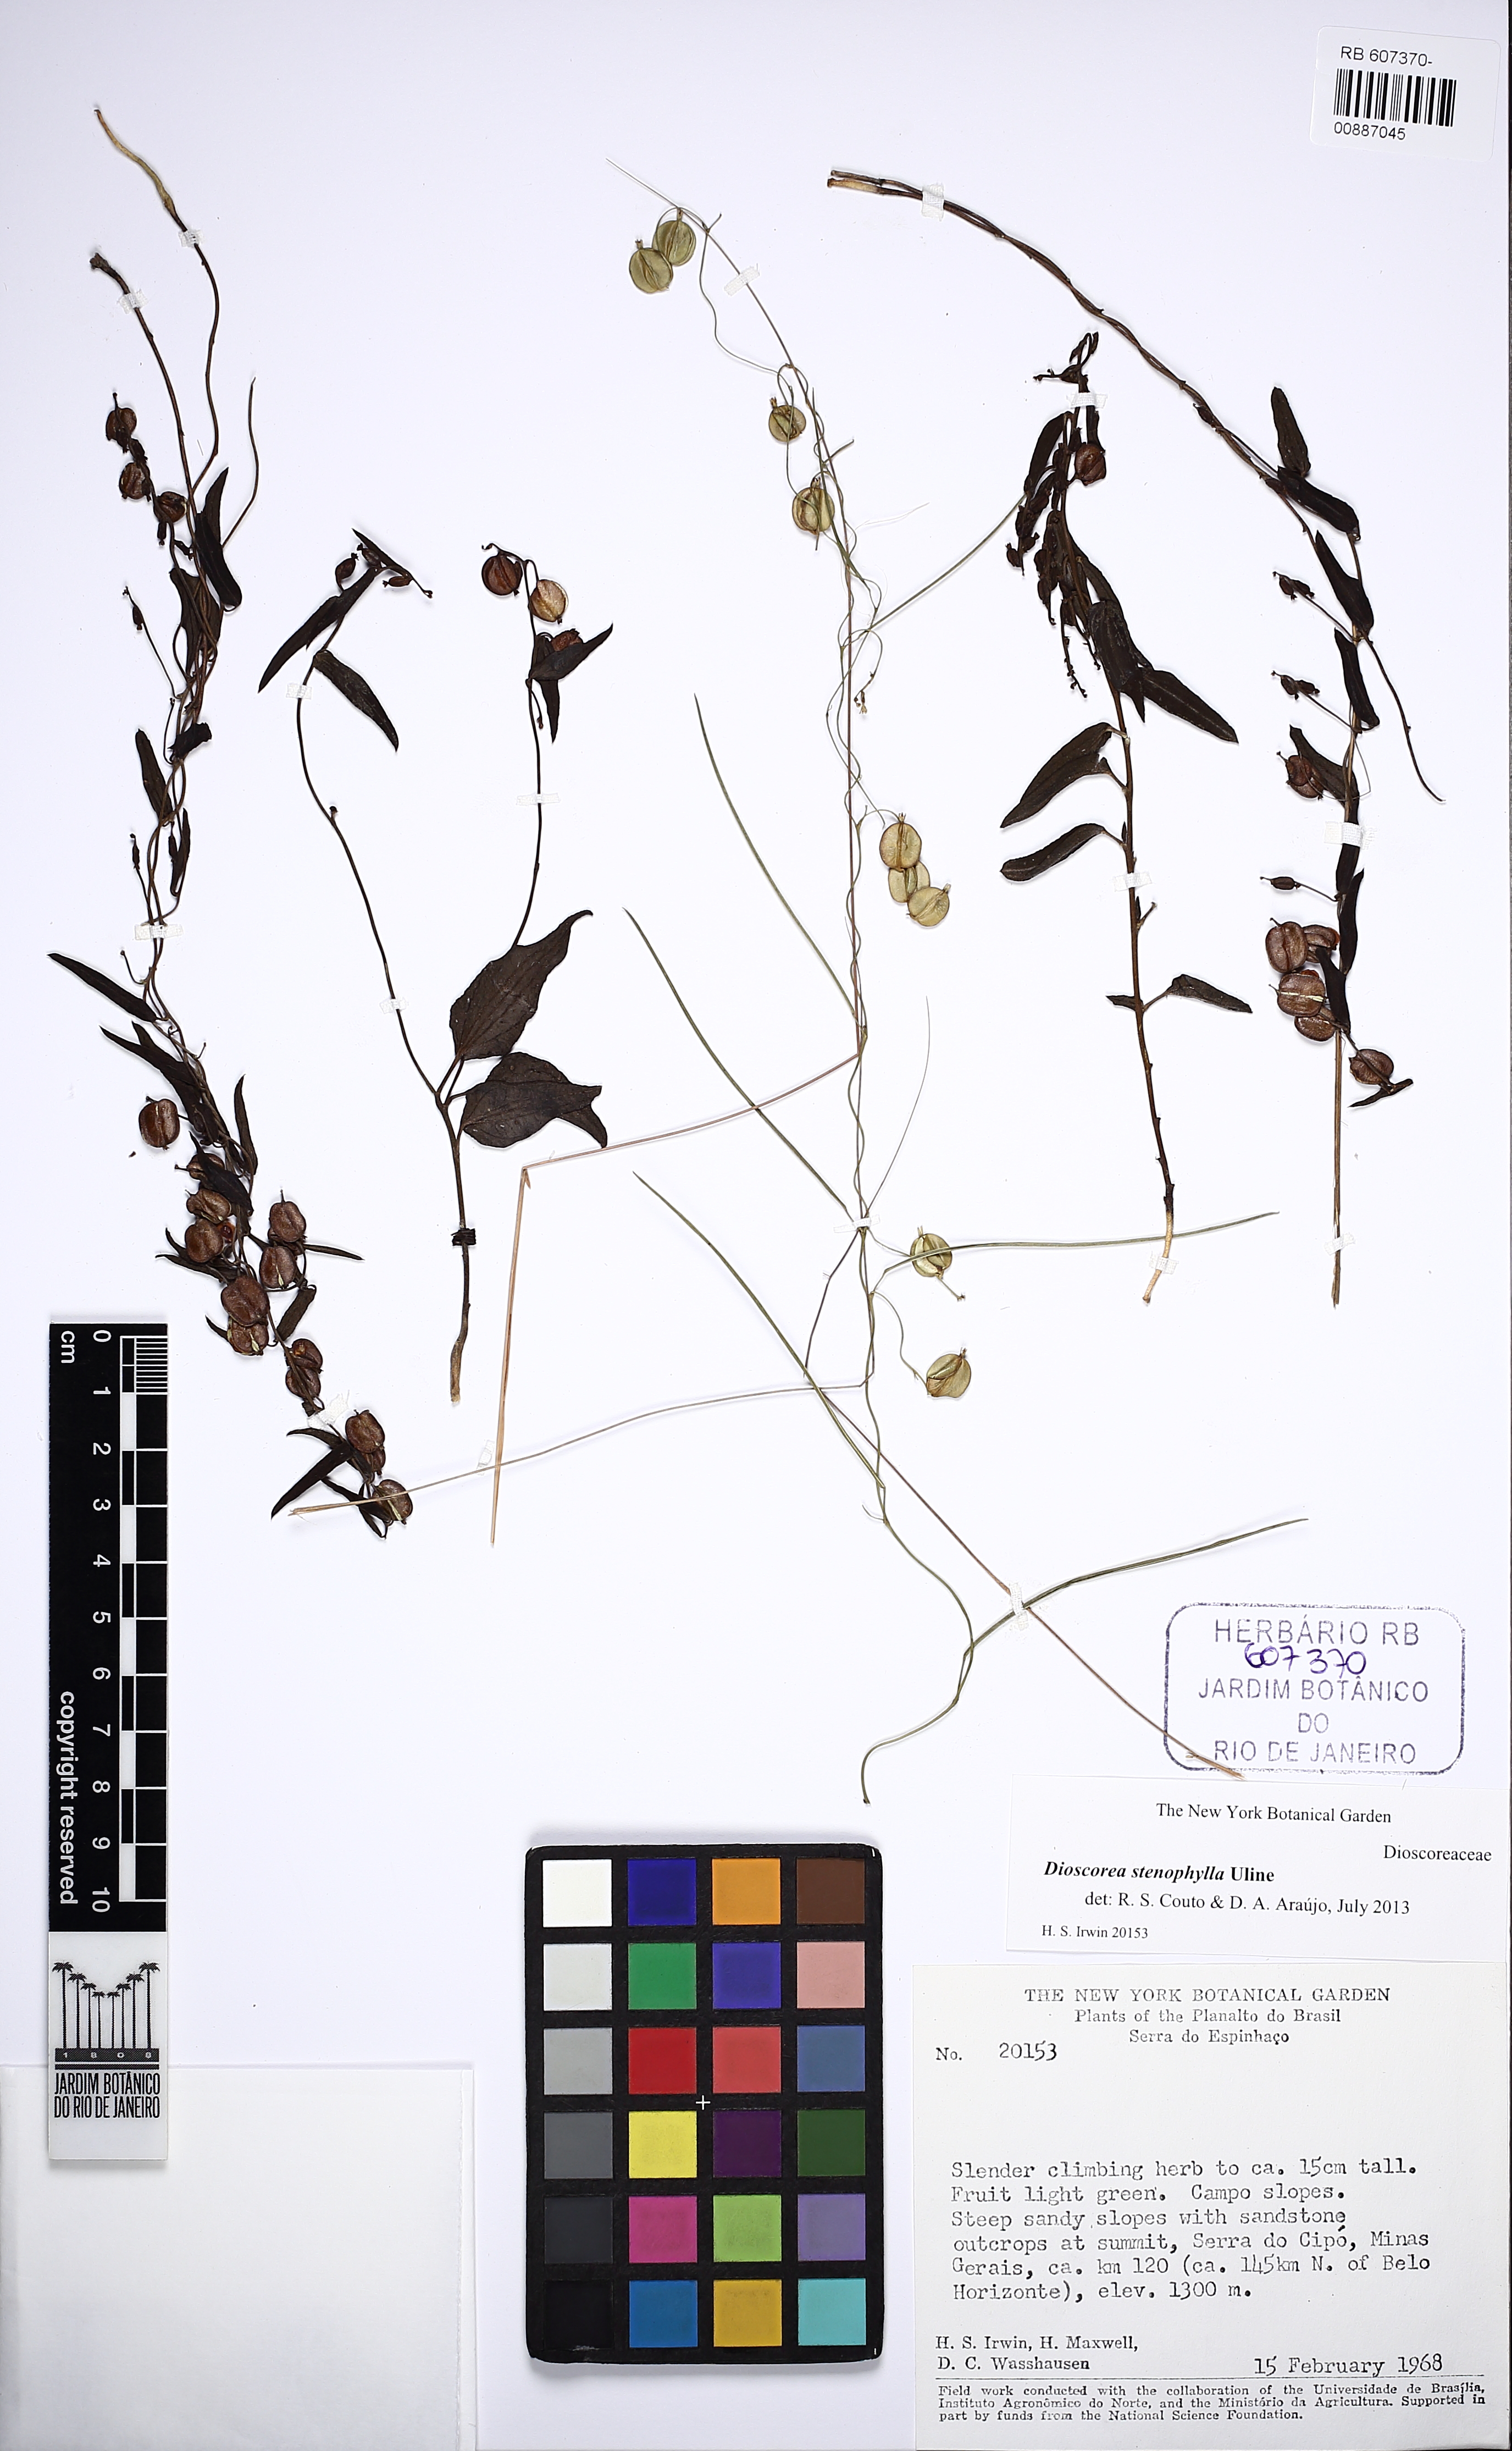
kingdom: Plantae
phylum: Tracheophyta
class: Liliopsida
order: Dioscoreales
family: Dioscoreaceae
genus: Dioscorea
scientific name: Dioscorea stenophylla
